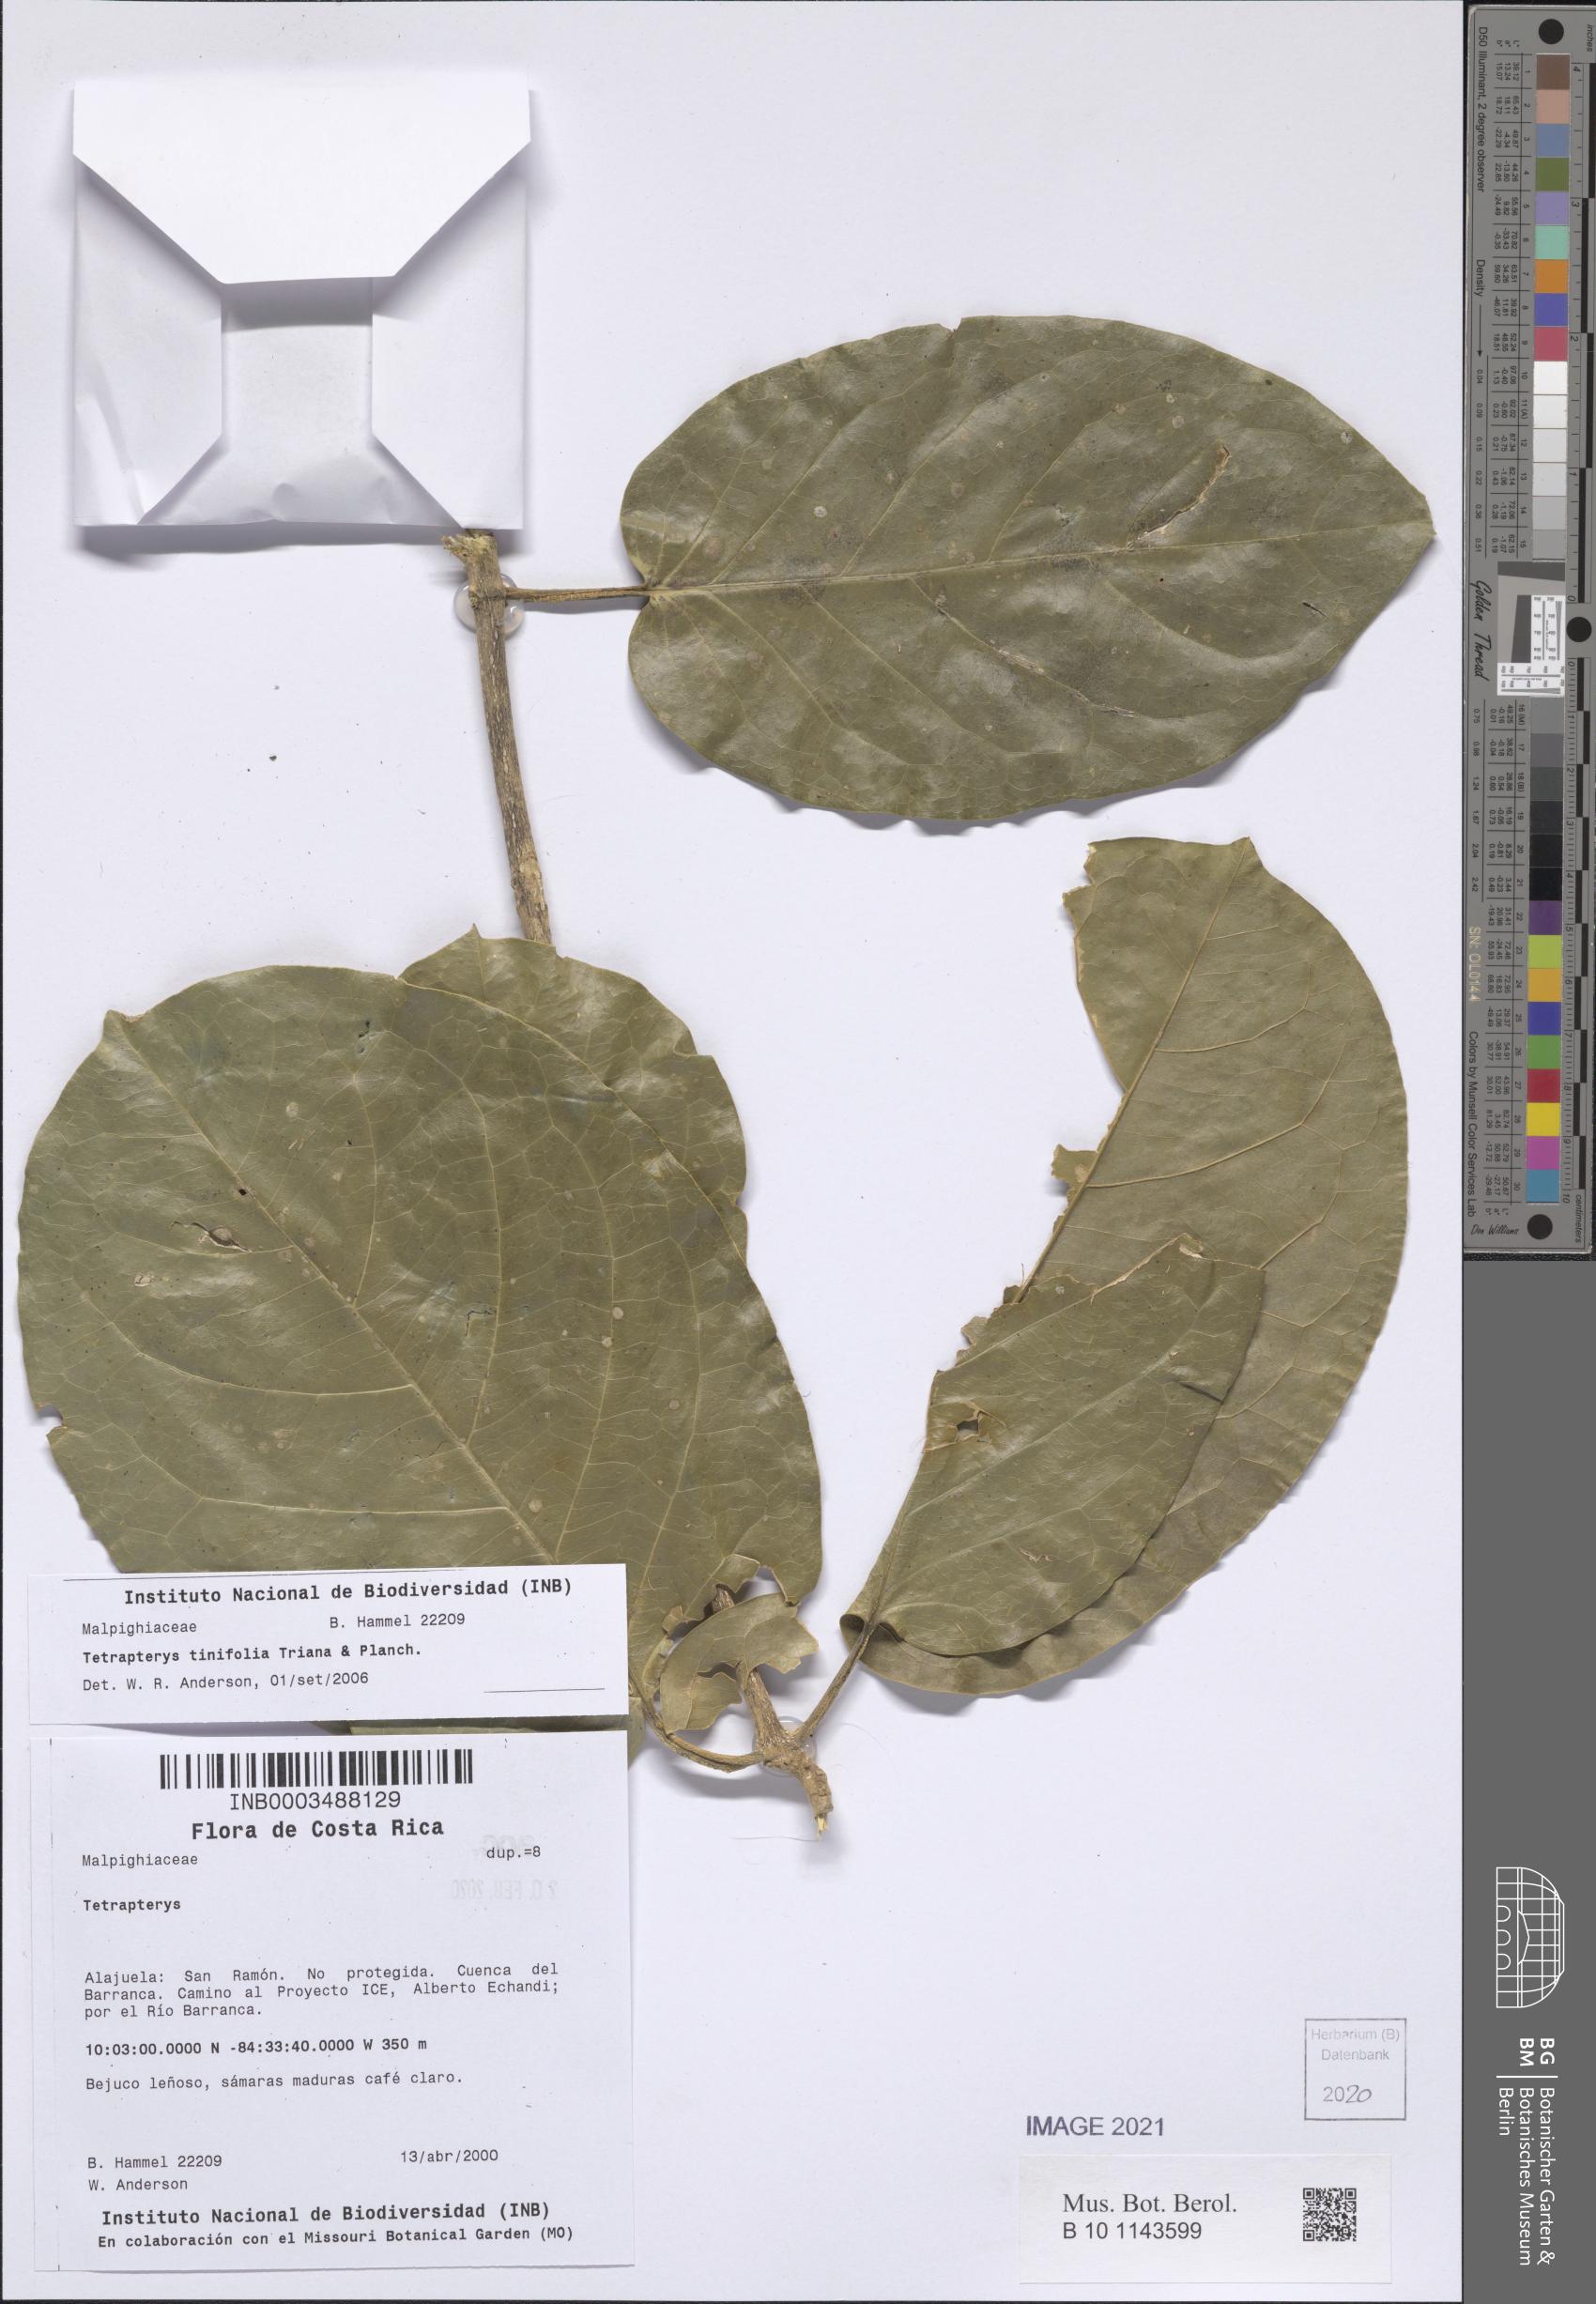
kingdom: Plantae
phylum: Tracheophyta
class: Magnoliopsida
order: Malpighiales
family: Malpighiaceae
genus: Tetrapterys
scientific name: Tetrapterys tinifolia
